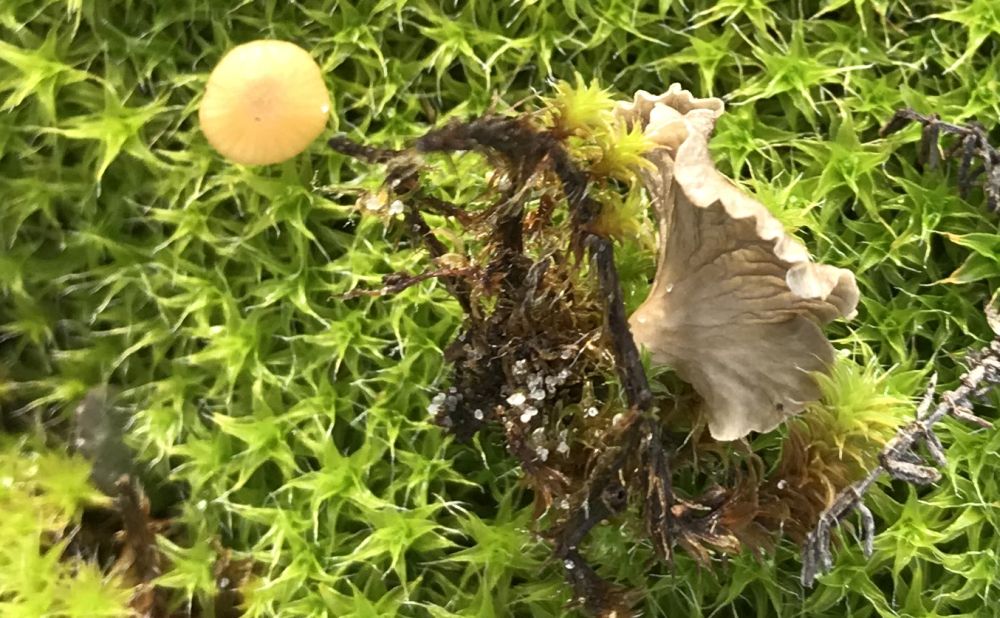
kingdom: Fungi
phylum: Basidiomycota
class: Agaricomycetes
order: Agaricales
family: Hygrophoraceae
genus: Arrhenia
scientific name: Arrhenia spathulata
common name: skæv fontænehat
